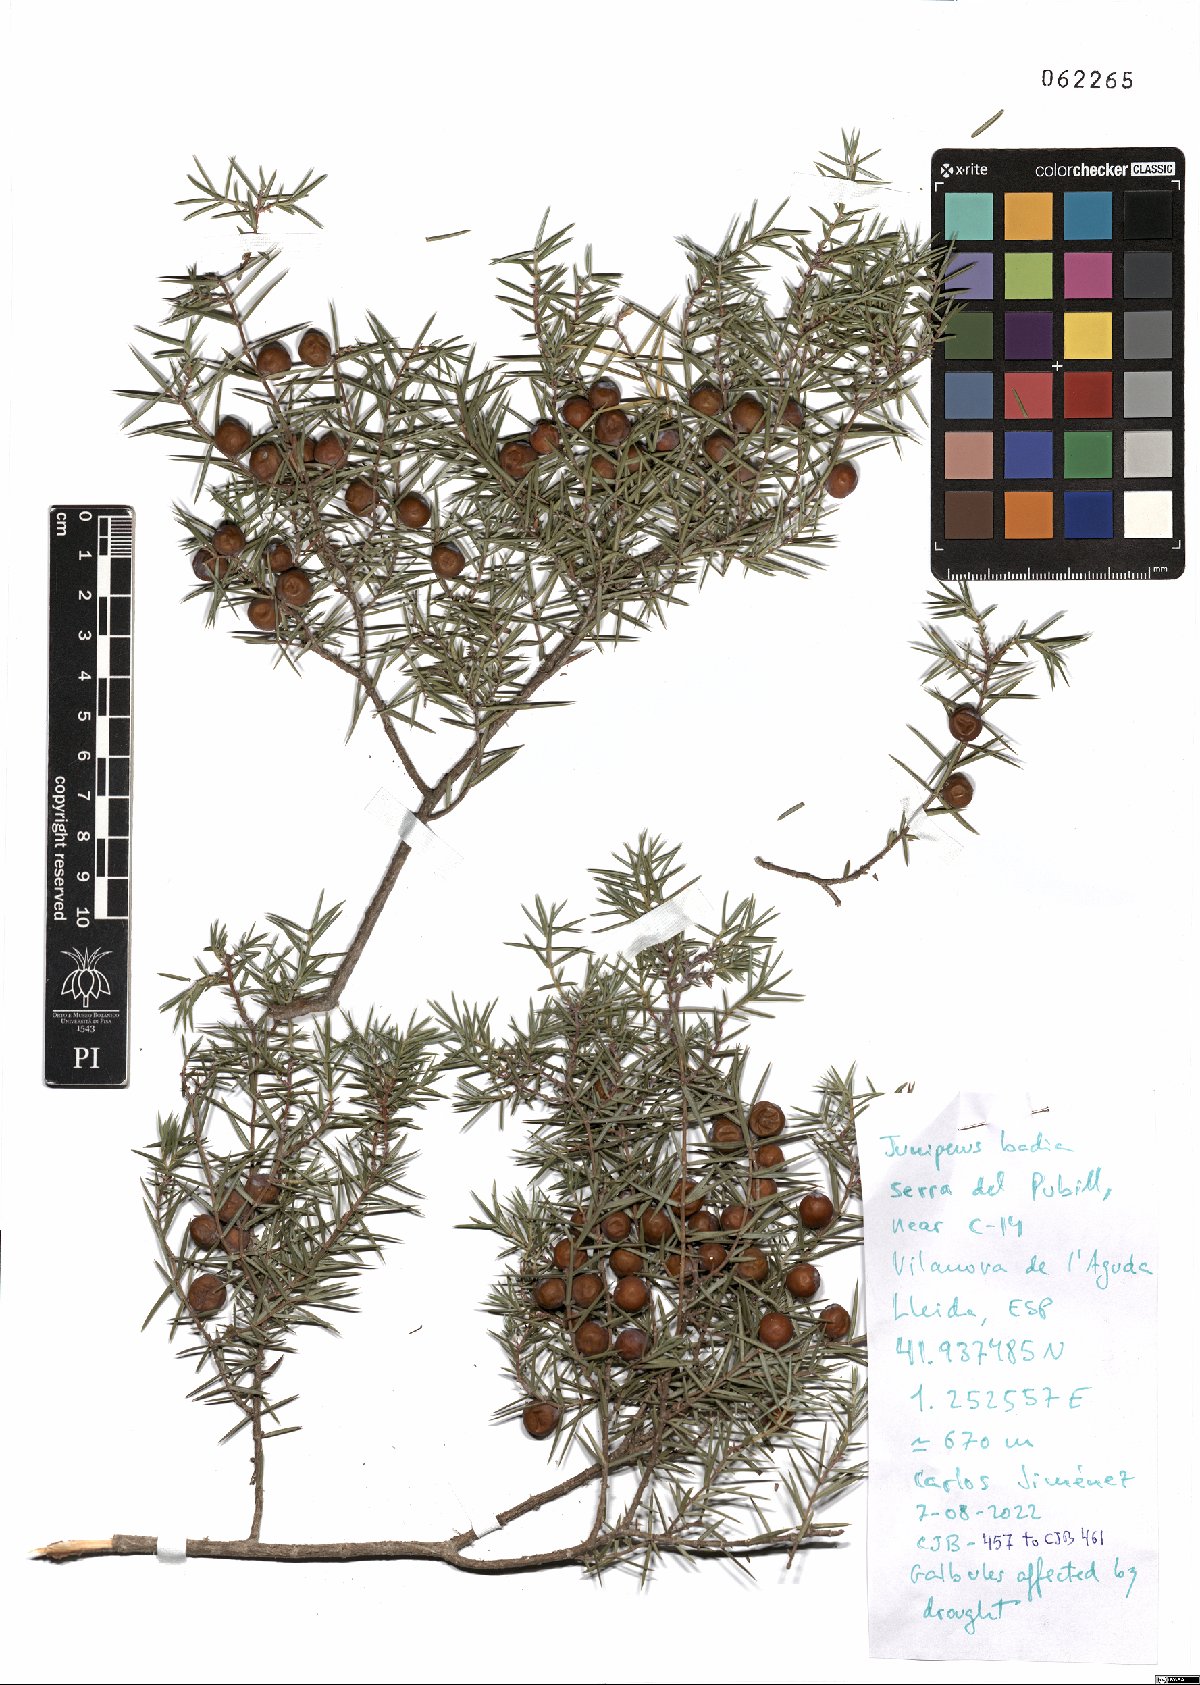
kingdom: Plantae
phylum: Tracheophyta
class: Pinopsida
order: Pinales
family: Cupressaceae
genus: Juniperus
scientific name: Juniperus oxycedrus
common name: Prickly juniper
